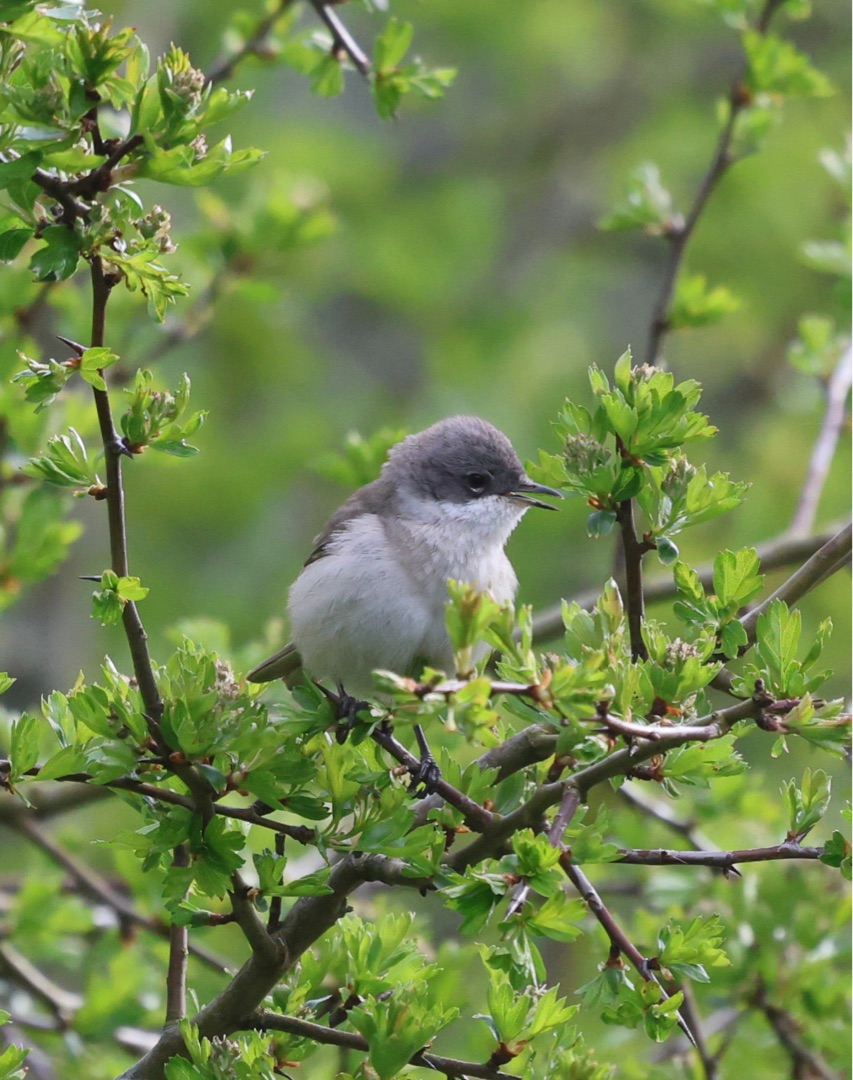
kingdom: Animalia
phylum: Chordata
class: Aves
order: Passeriformes
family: Sylviidae
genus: Sylvia
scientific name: Sylvia curruca
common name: Gærdesanger
